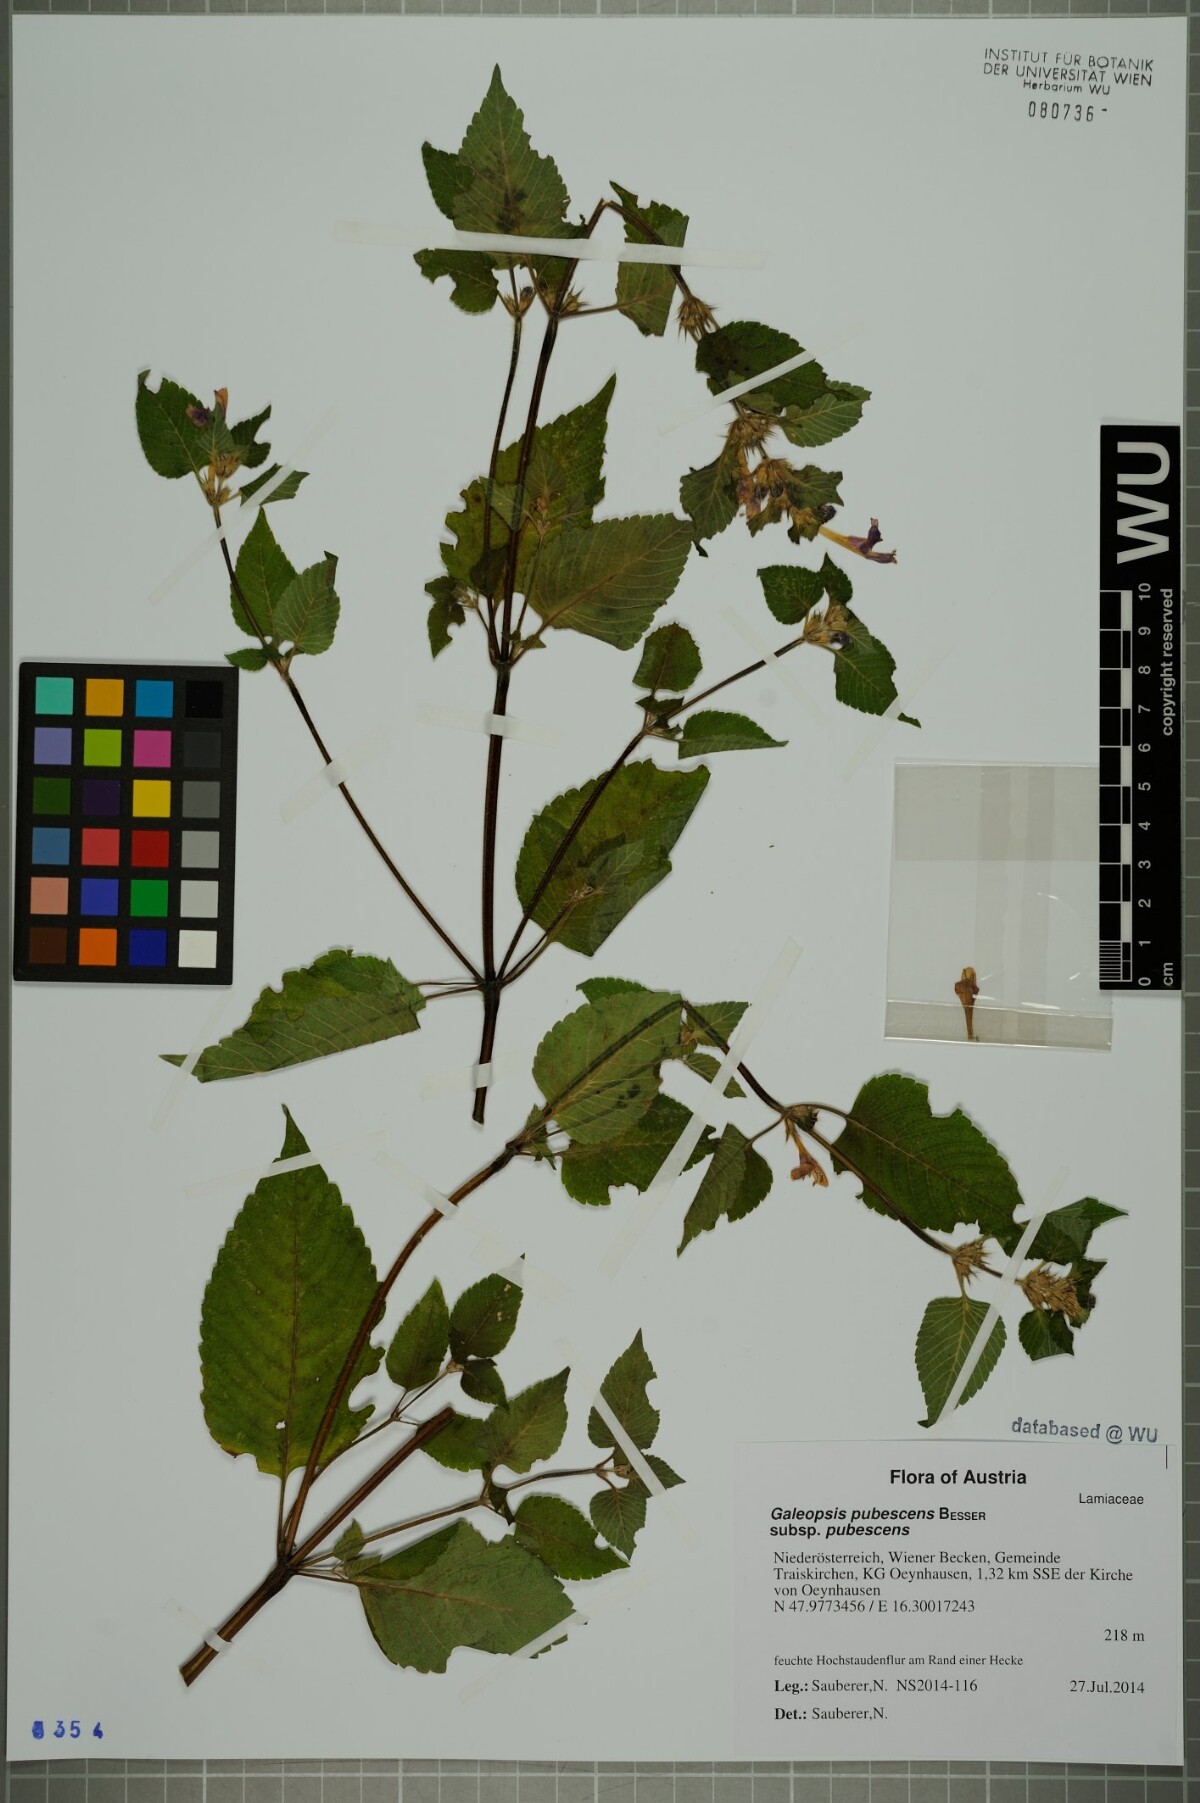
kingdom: Plantae
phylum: Tracheophyta
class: Magnoliopsida
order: Lamiales
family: Lamiaceae
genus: Galeopsis
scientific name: Galeopsis pubescens
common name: Downy hemp-nettle
